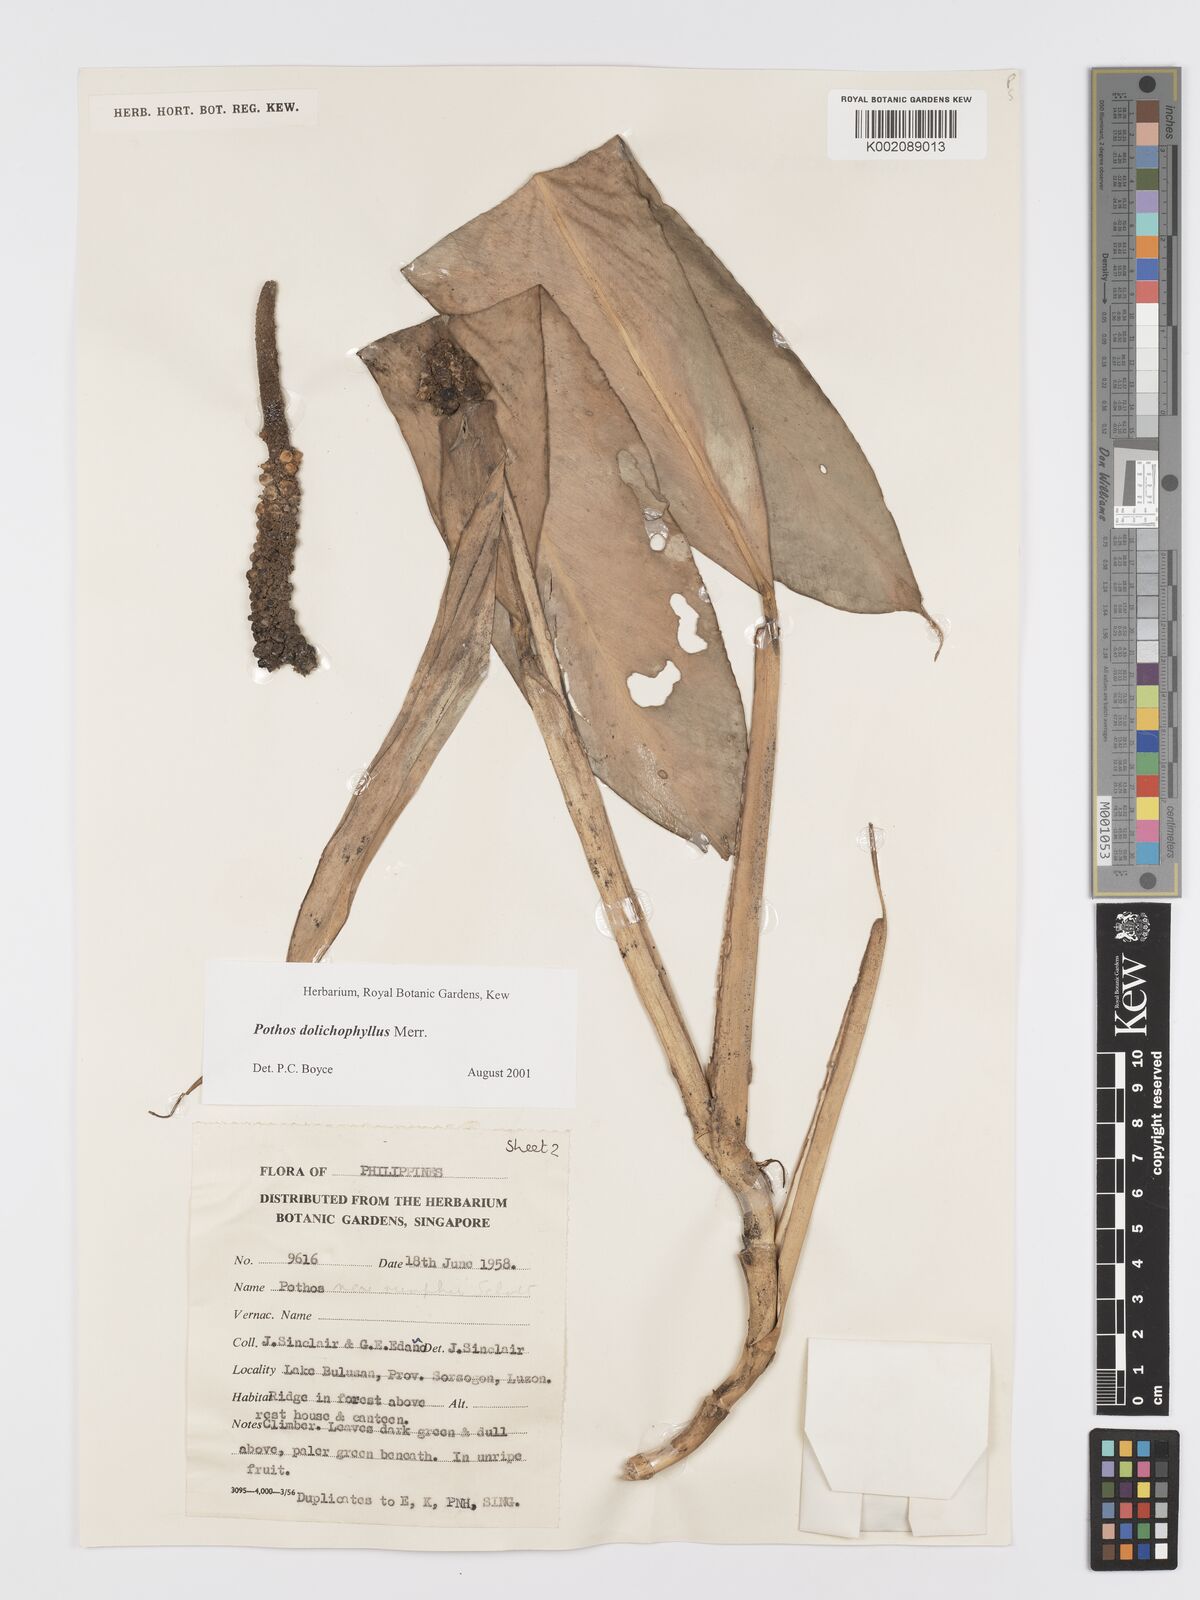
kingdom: Plantae
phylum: Tracheophyta
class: Liliopsida
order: Alismatales
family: Araceae
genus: Pothos
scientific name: Pothos dolichophyllus
